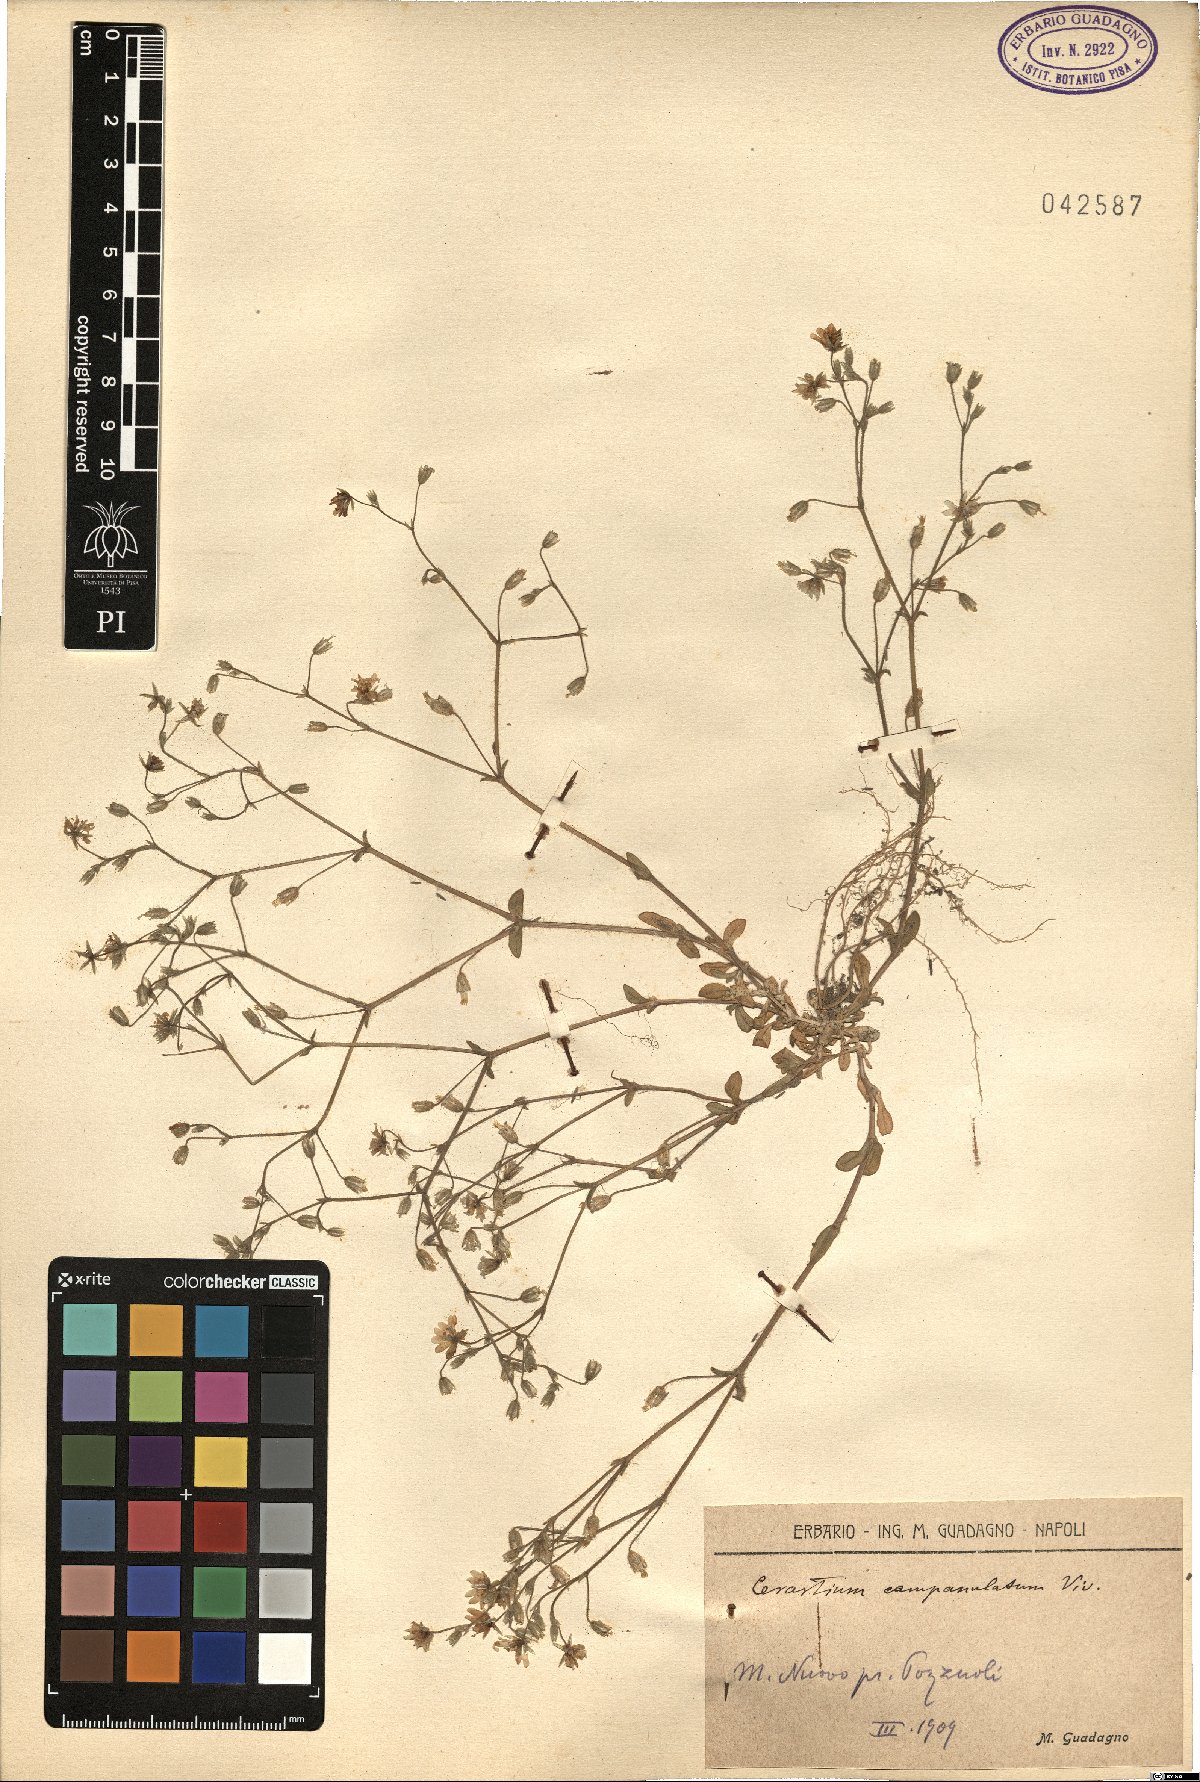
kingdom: Plantae
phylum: Tracheophyta
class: Magnoliopsida
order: Caryophyllales
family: Caryophyllaceae
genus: Cerastium
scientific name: Cerastium ligusticum
